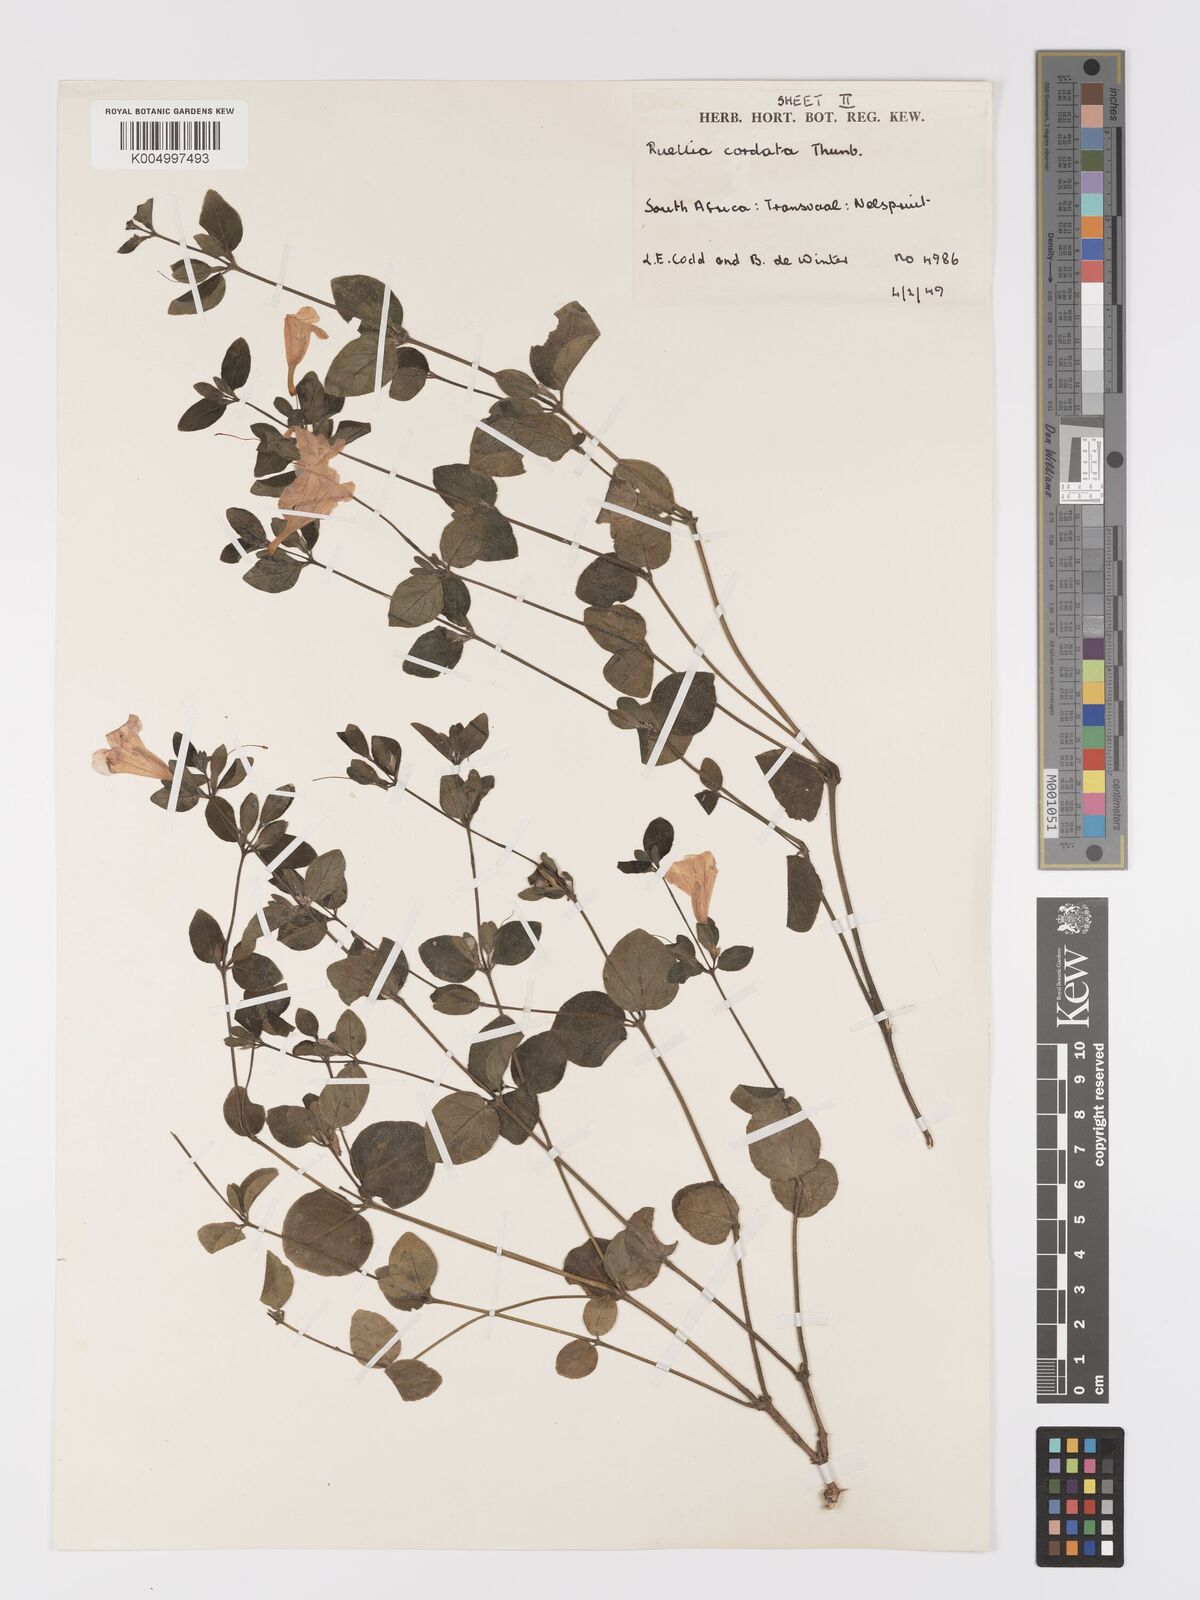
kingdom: Plantae
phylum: Tracheophyta
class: Magnoliopsida
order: Lamiales
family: Acanthaceae
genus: Ruellia
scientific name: Ruellia cordata
